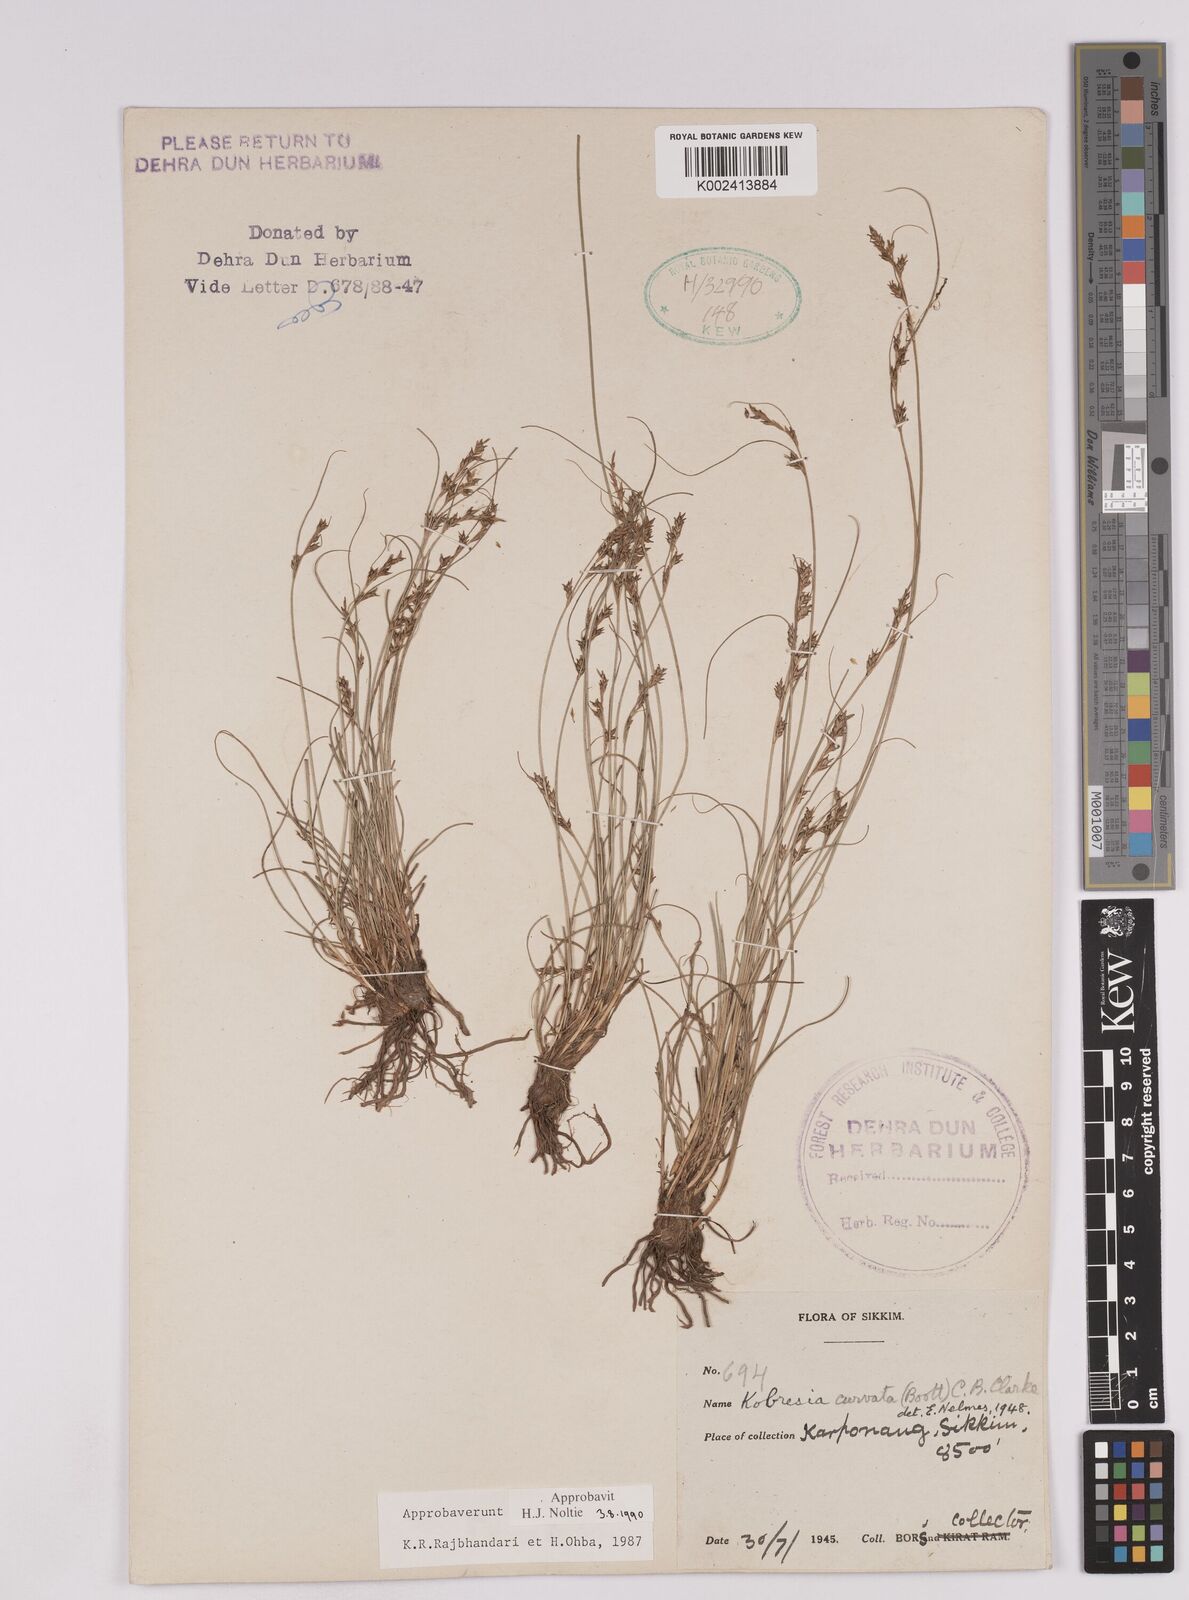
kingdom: Plantae
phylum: Tracheophyta
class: Liliopsida
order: Poales
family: Cyperaceae
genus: Carex
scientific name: Carex bonatiana
